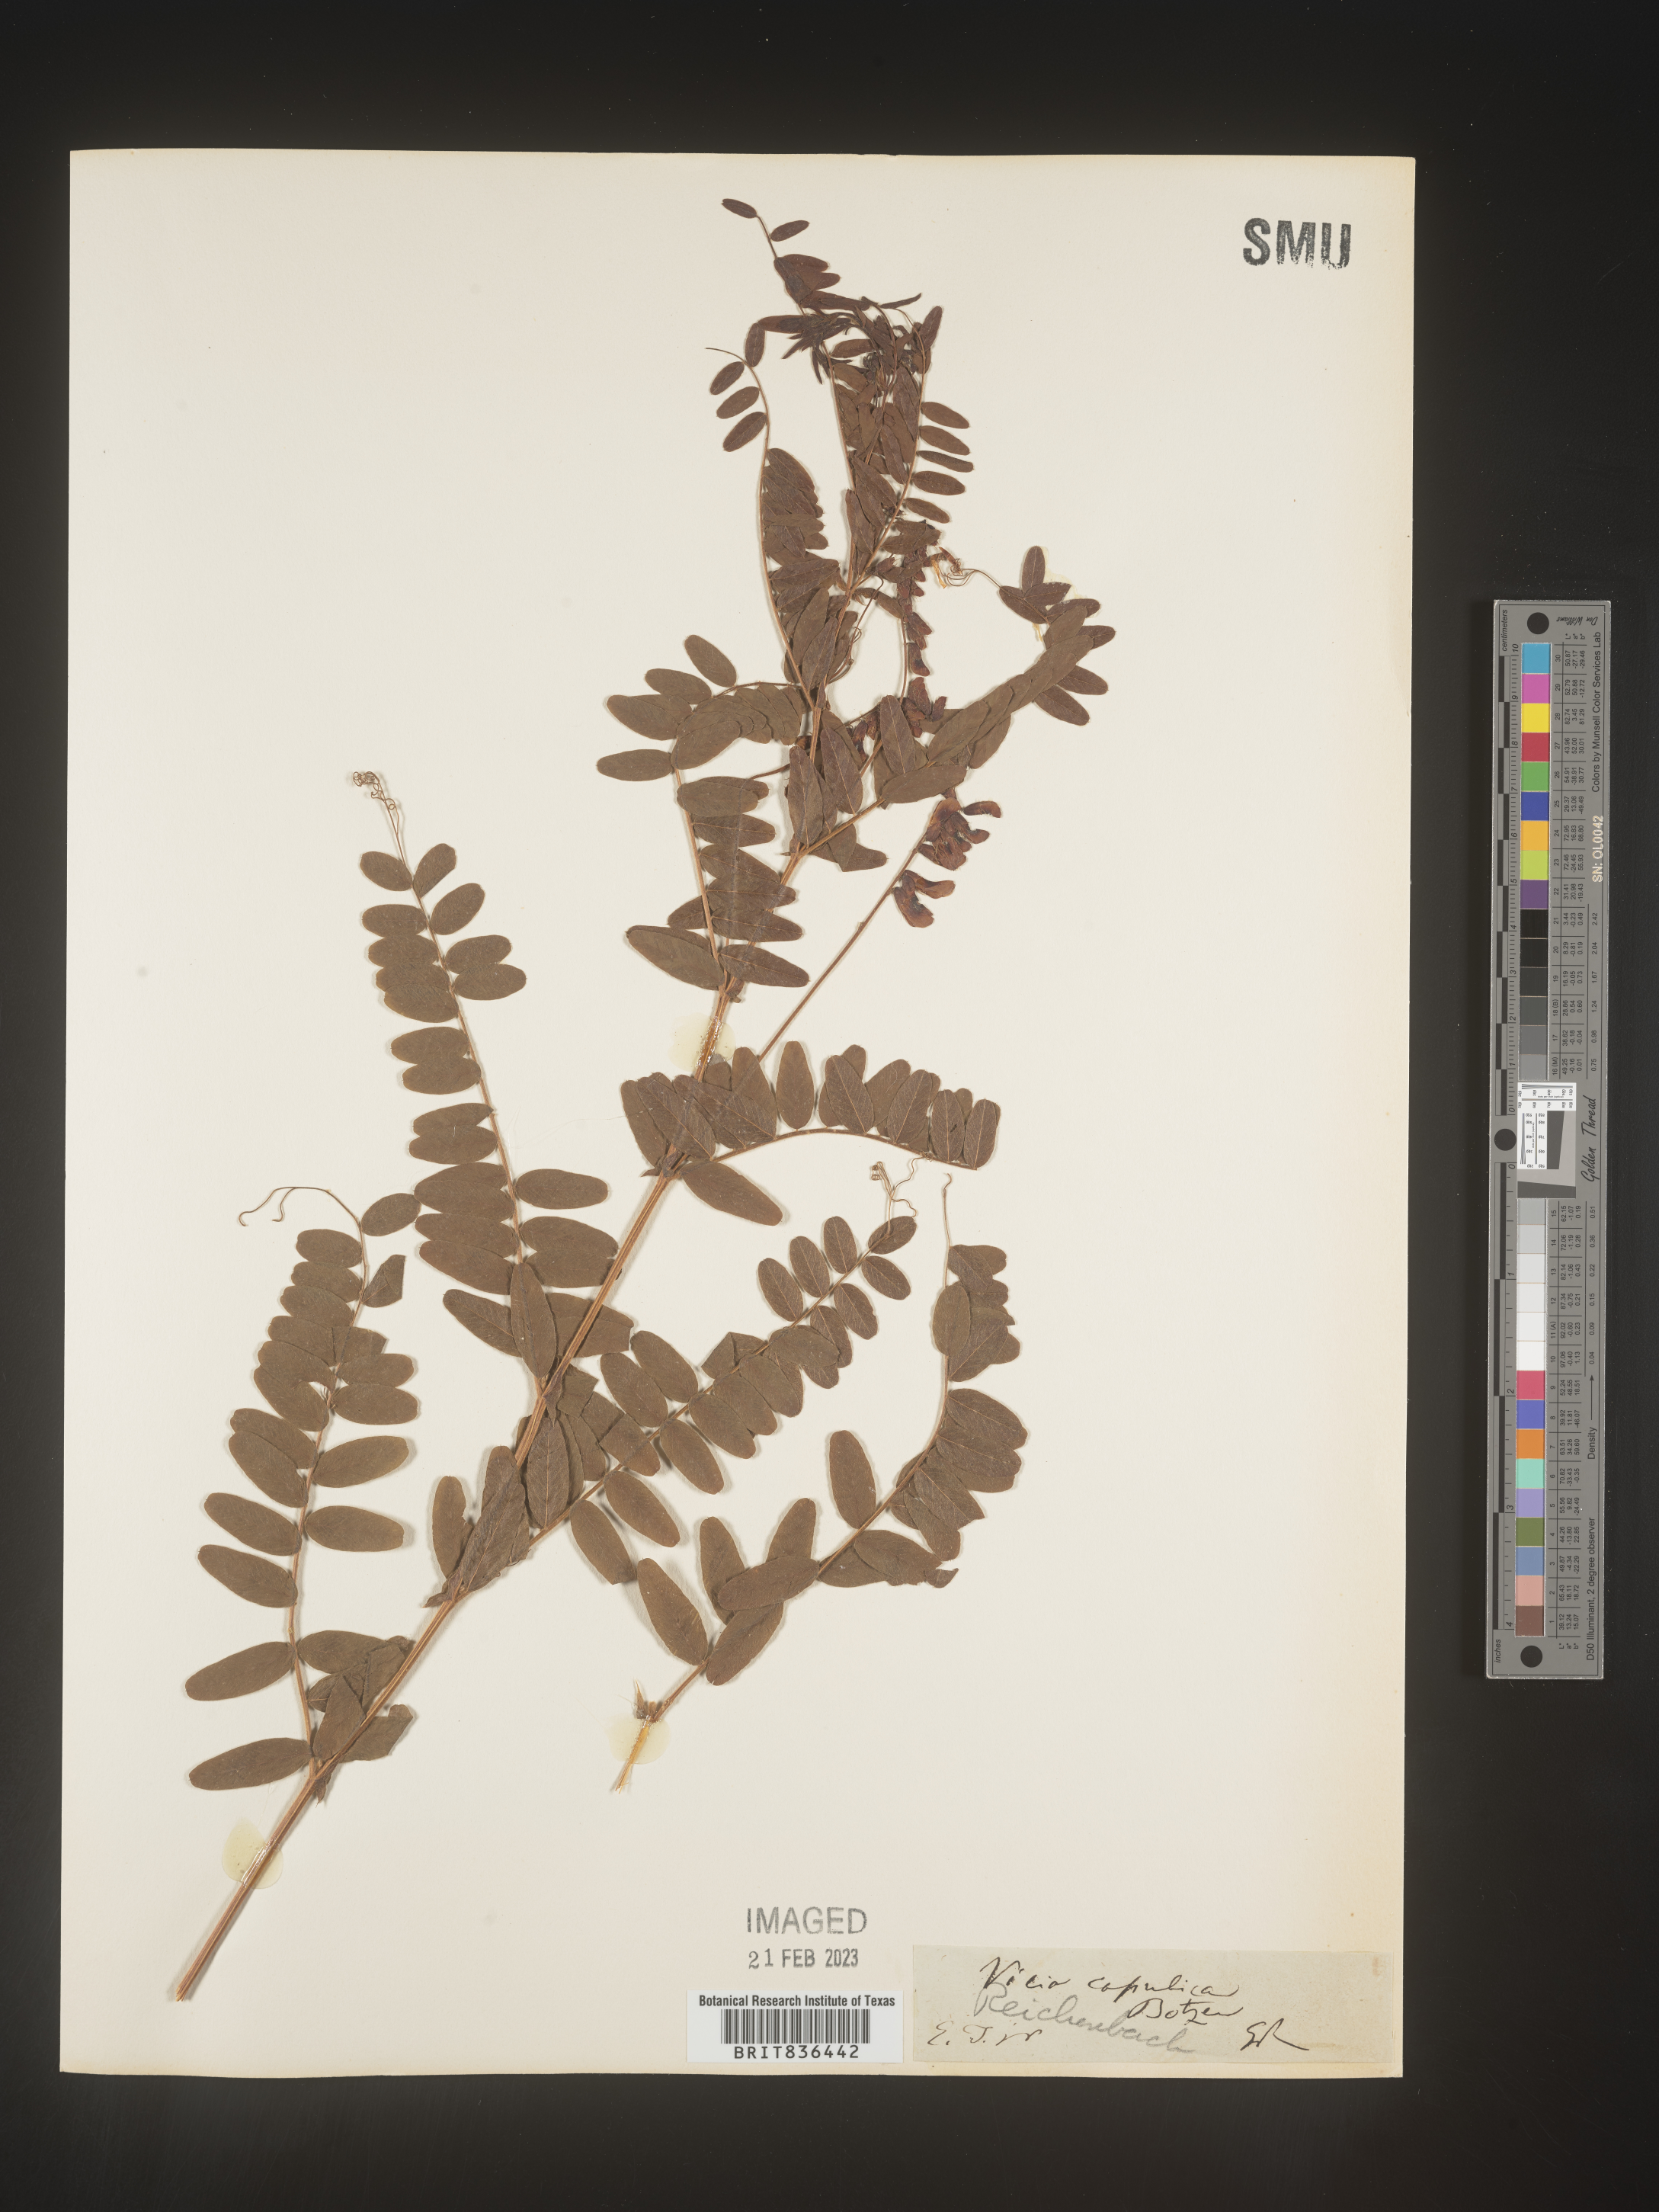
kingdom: Plantae
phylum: Tracheophyta
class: Magnoliopsida
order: Fabales
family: Fabaceae
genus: Vicia
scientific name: Vicia
